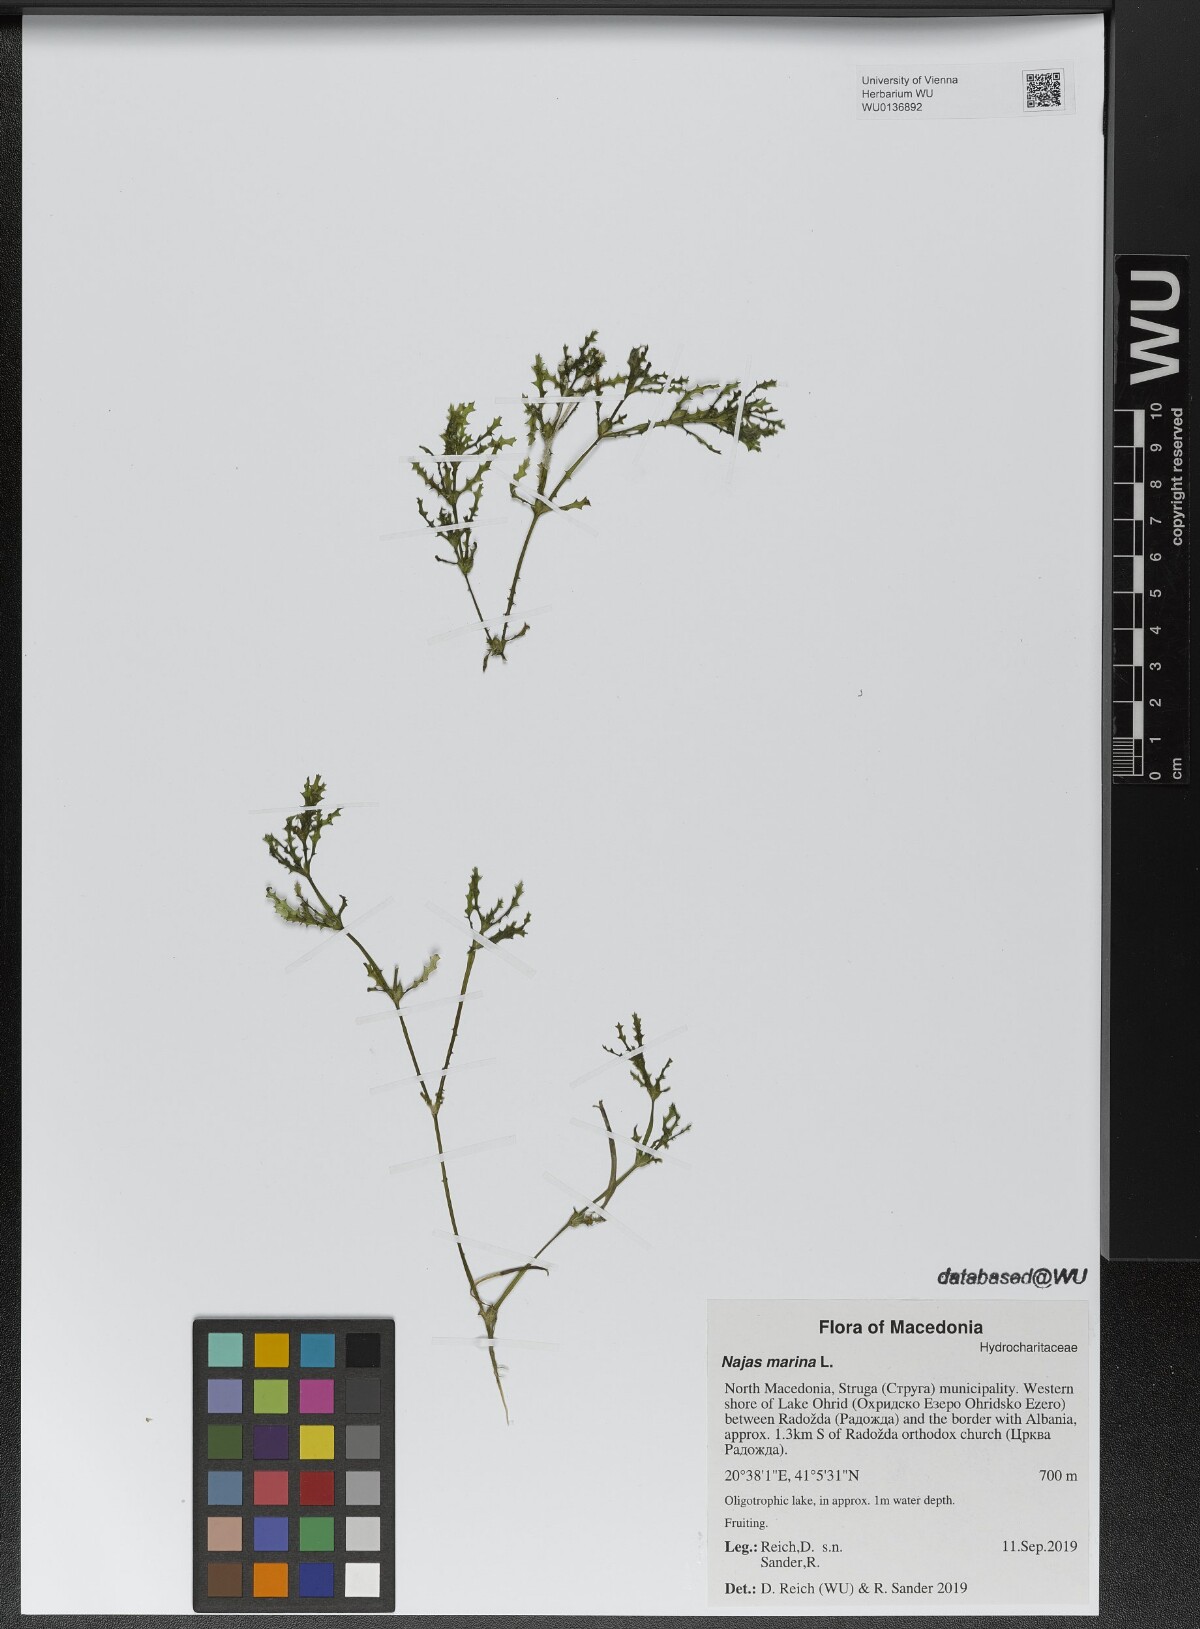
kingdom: Plantae
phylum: Tracheophyta
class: Liliopsida
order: Alismatales
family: Hydrocharitaceae
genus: Najas
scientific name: Najas marina
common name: Holly-leaved naiad
